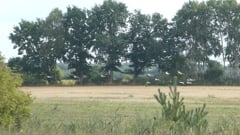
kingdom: Animalia
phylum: Chordata
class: Aves
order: Gruiformes
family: Gruidae
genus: Grus
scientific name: Grus grus
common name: Common crane
